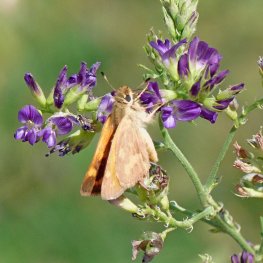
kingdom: Animalia
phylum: Arthropoda
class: Insecta
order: Lepidoptera
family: Hesperiidae
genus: Ochlodes
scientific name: Ochlodes sylvanoides
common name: Woodland Skipper
